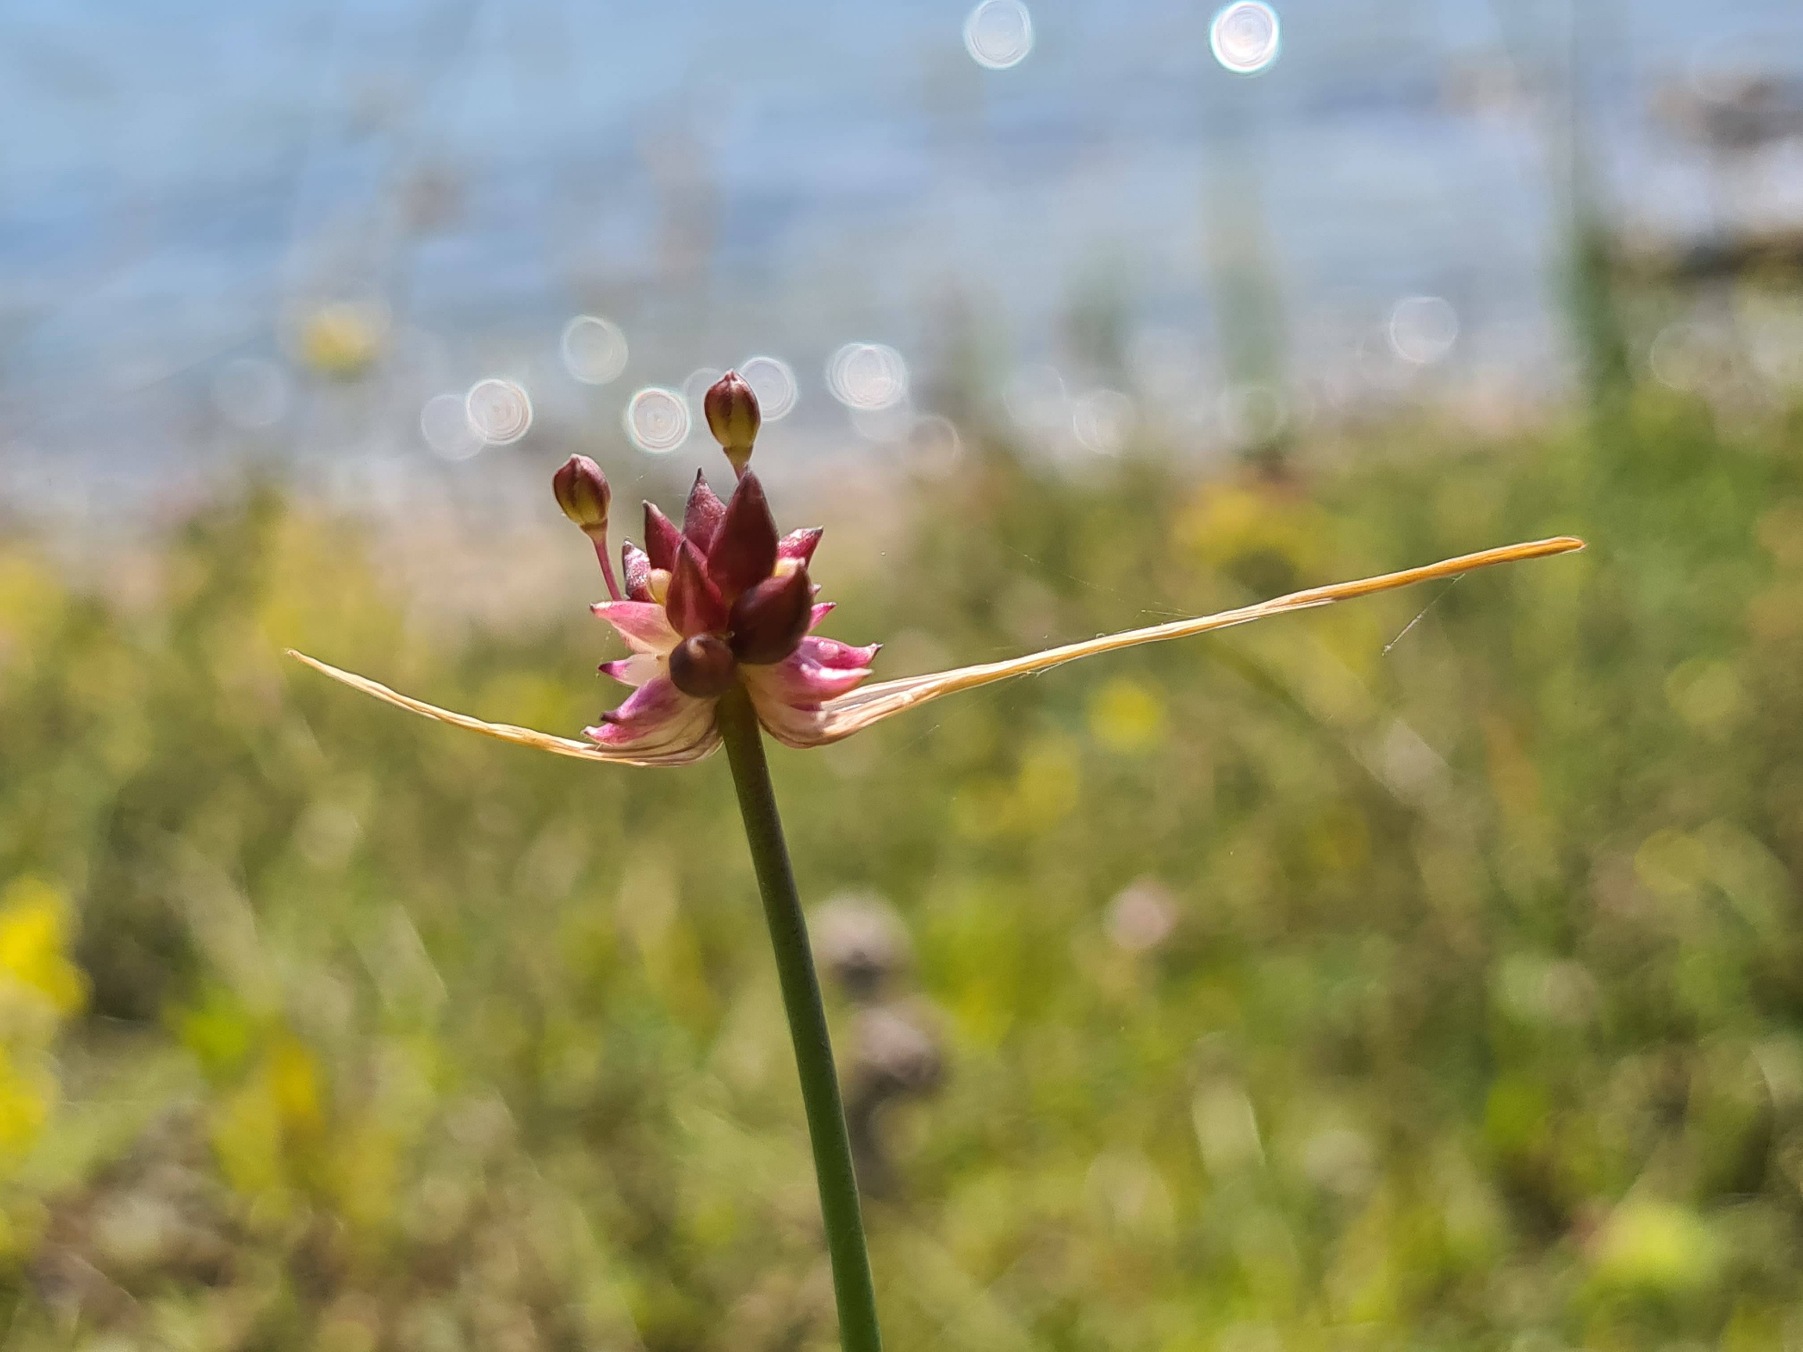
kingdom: Plantae
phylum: Tracheophyta
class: Liliopsida
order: Asparagales
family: Amaryllidaceae
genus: Allium
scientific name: Allium oleraceum
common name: Vild løg
